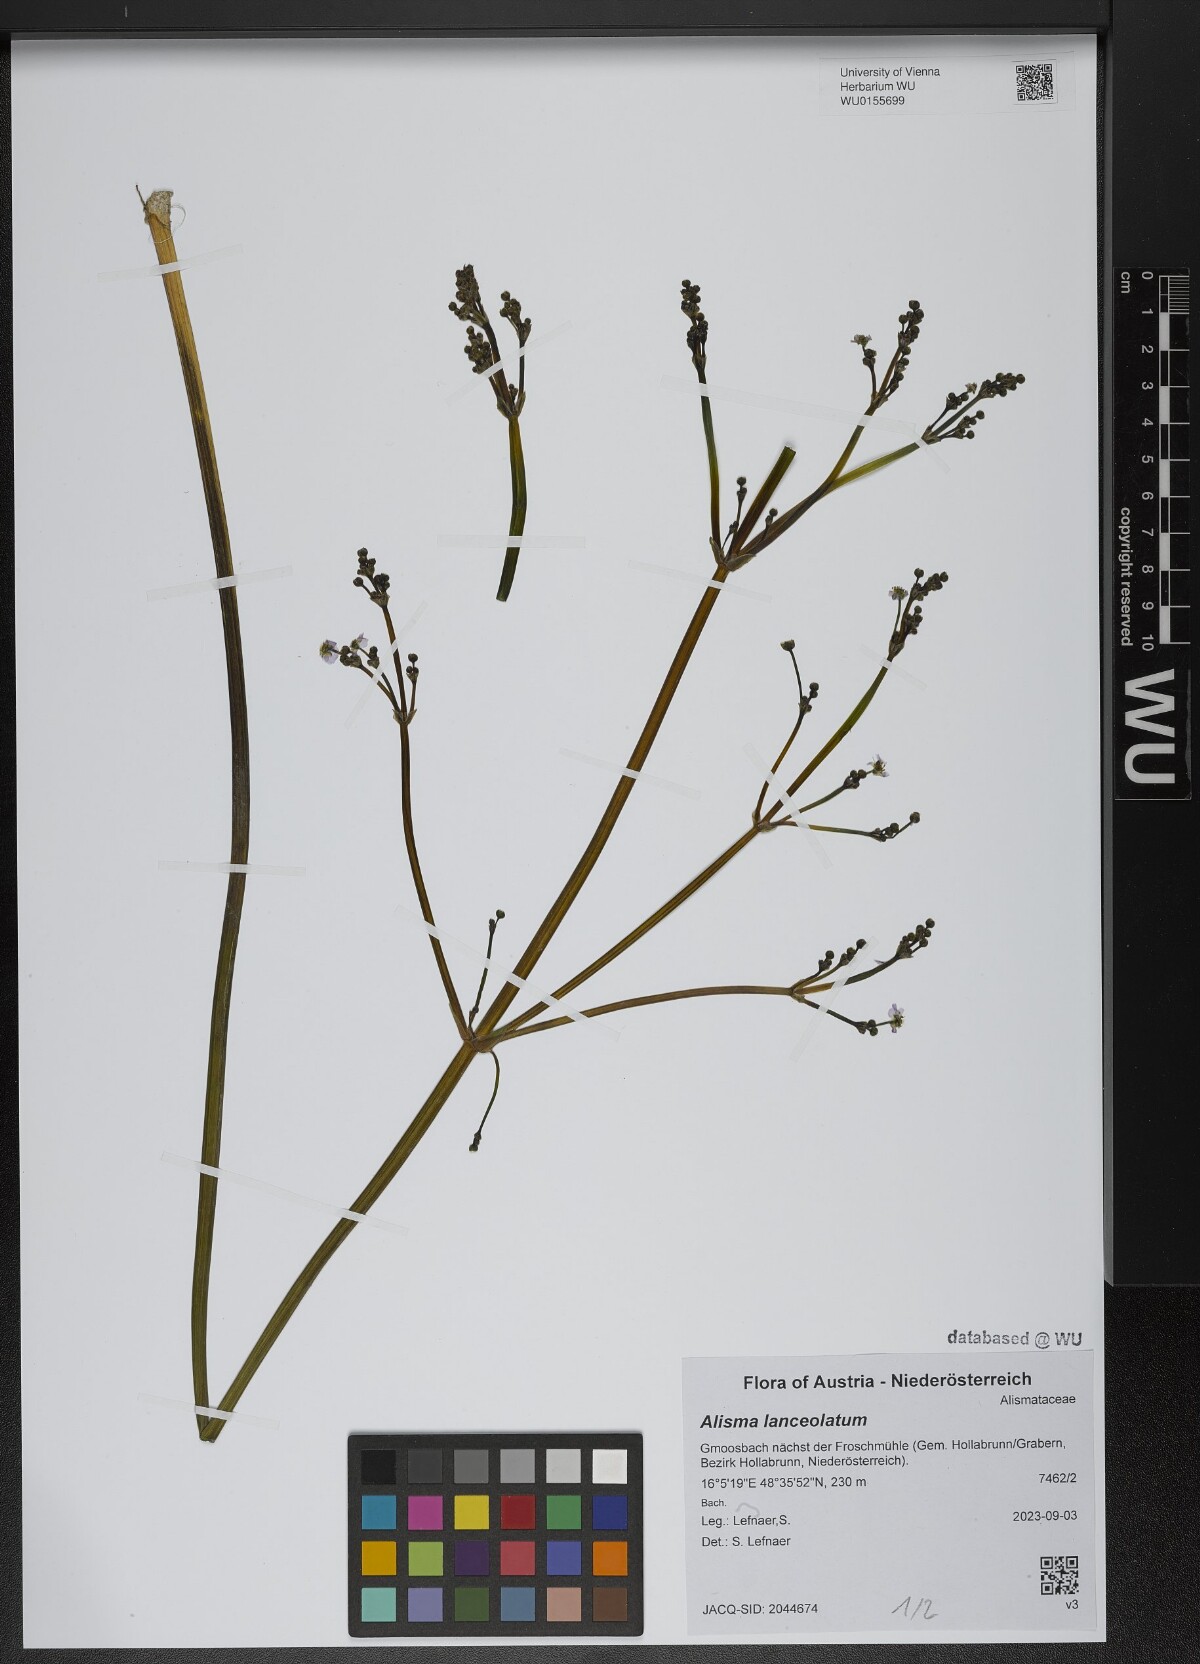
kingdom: Plantae
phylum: Tracheophyta
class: Liliopsida
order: Alismatales
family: Alismataceae
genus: Alisma
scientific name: Alisma lanceolatum
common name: Narrow-leaved water-plantain
